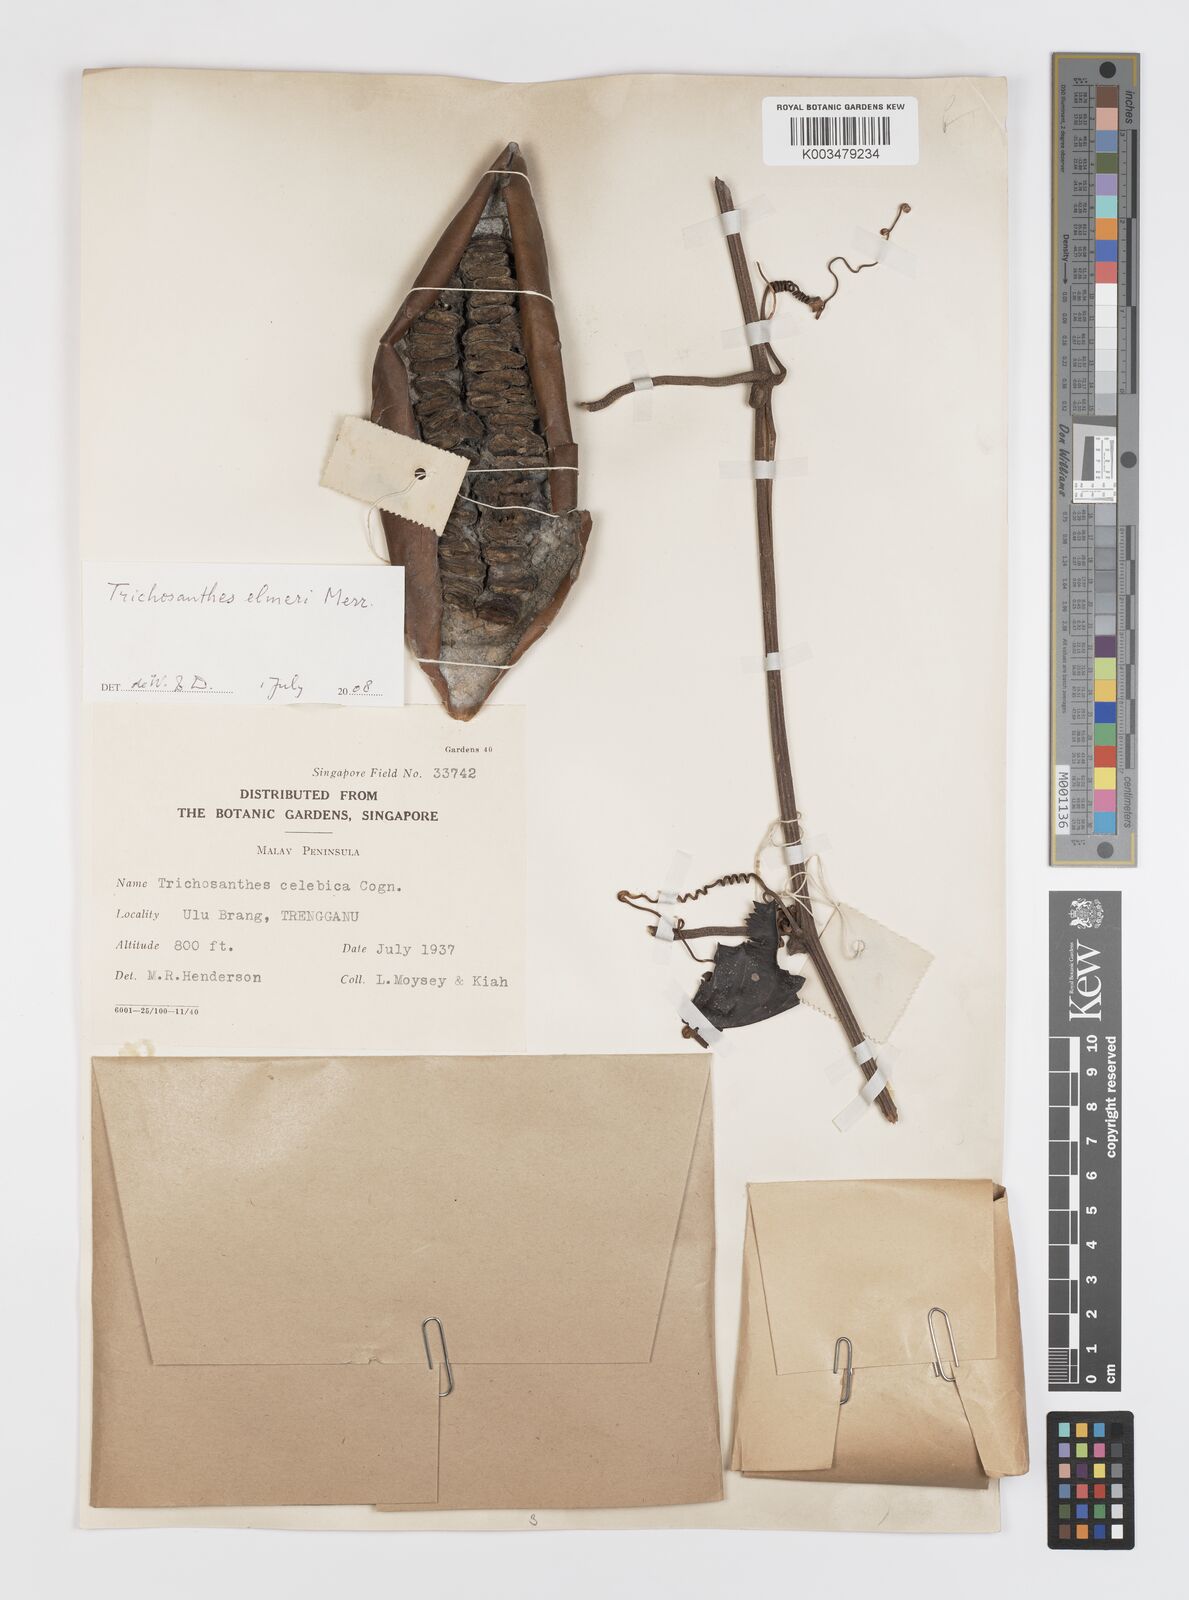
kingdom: Plantae
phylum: Tracheophyta
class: Magnoliopsida
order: Cucurbitales
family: Cucurbitaceae
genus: Trichosanthes
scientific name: Trichosanthes elmeri
